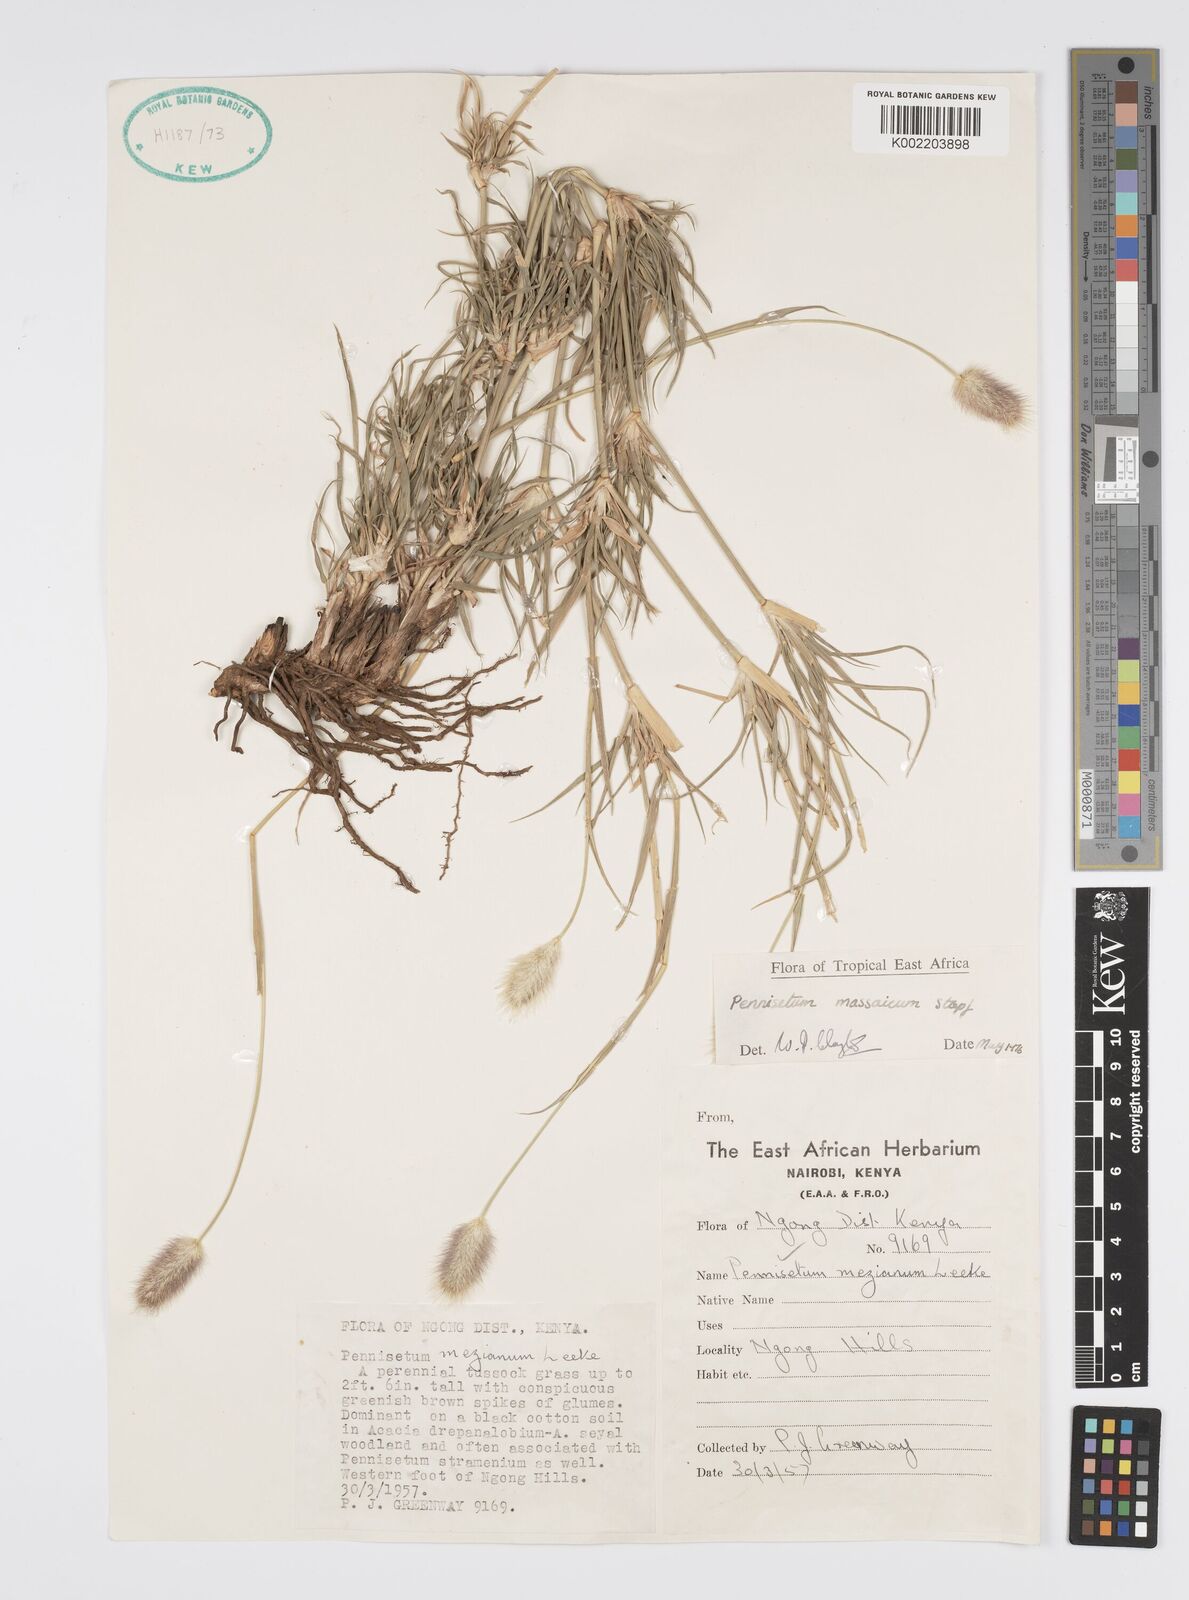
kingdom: Plantae
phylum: Tracheophyta
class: Liliopsida
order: Poales
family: Poaceae
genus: Cenchrus
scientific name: Cenchrus massaicus
